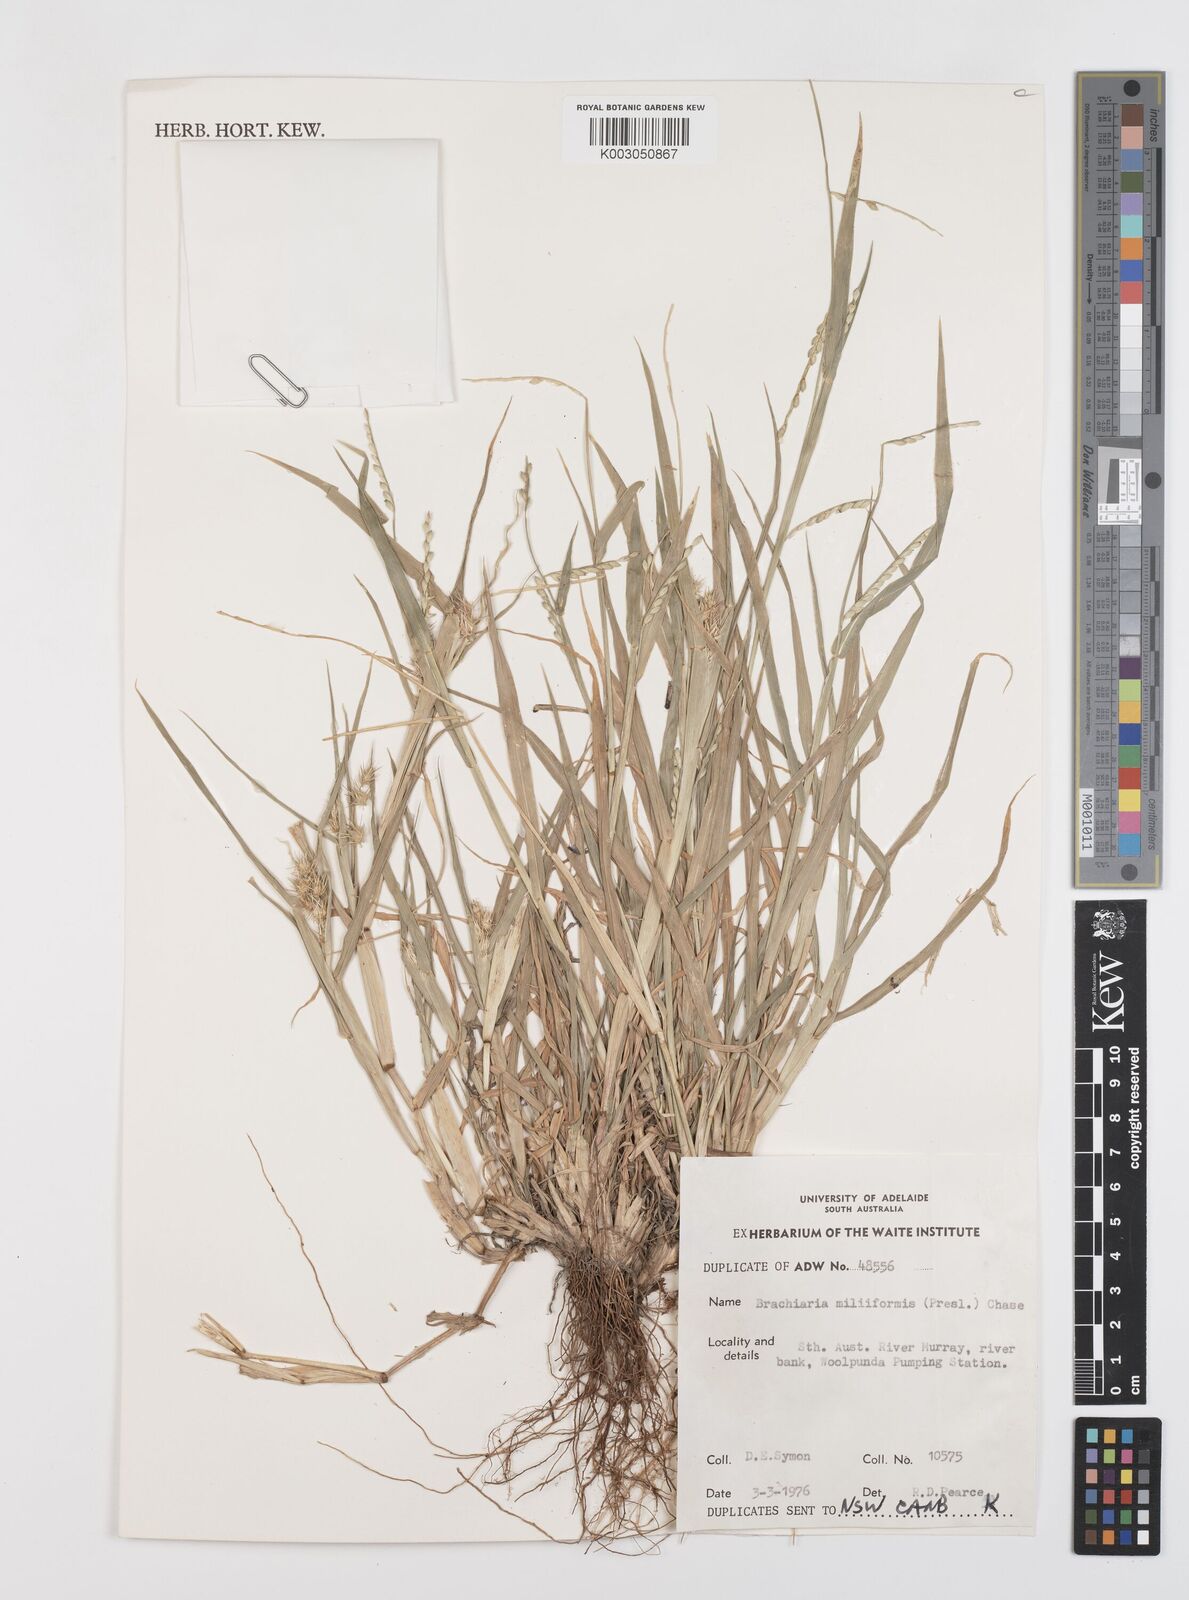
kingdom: Plantae
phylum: Tracheophyta
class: Liliopsida
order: Poales
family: Poaceae
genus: Urochloa
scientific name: Urochloa subquadripara
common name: Armgrass millet
